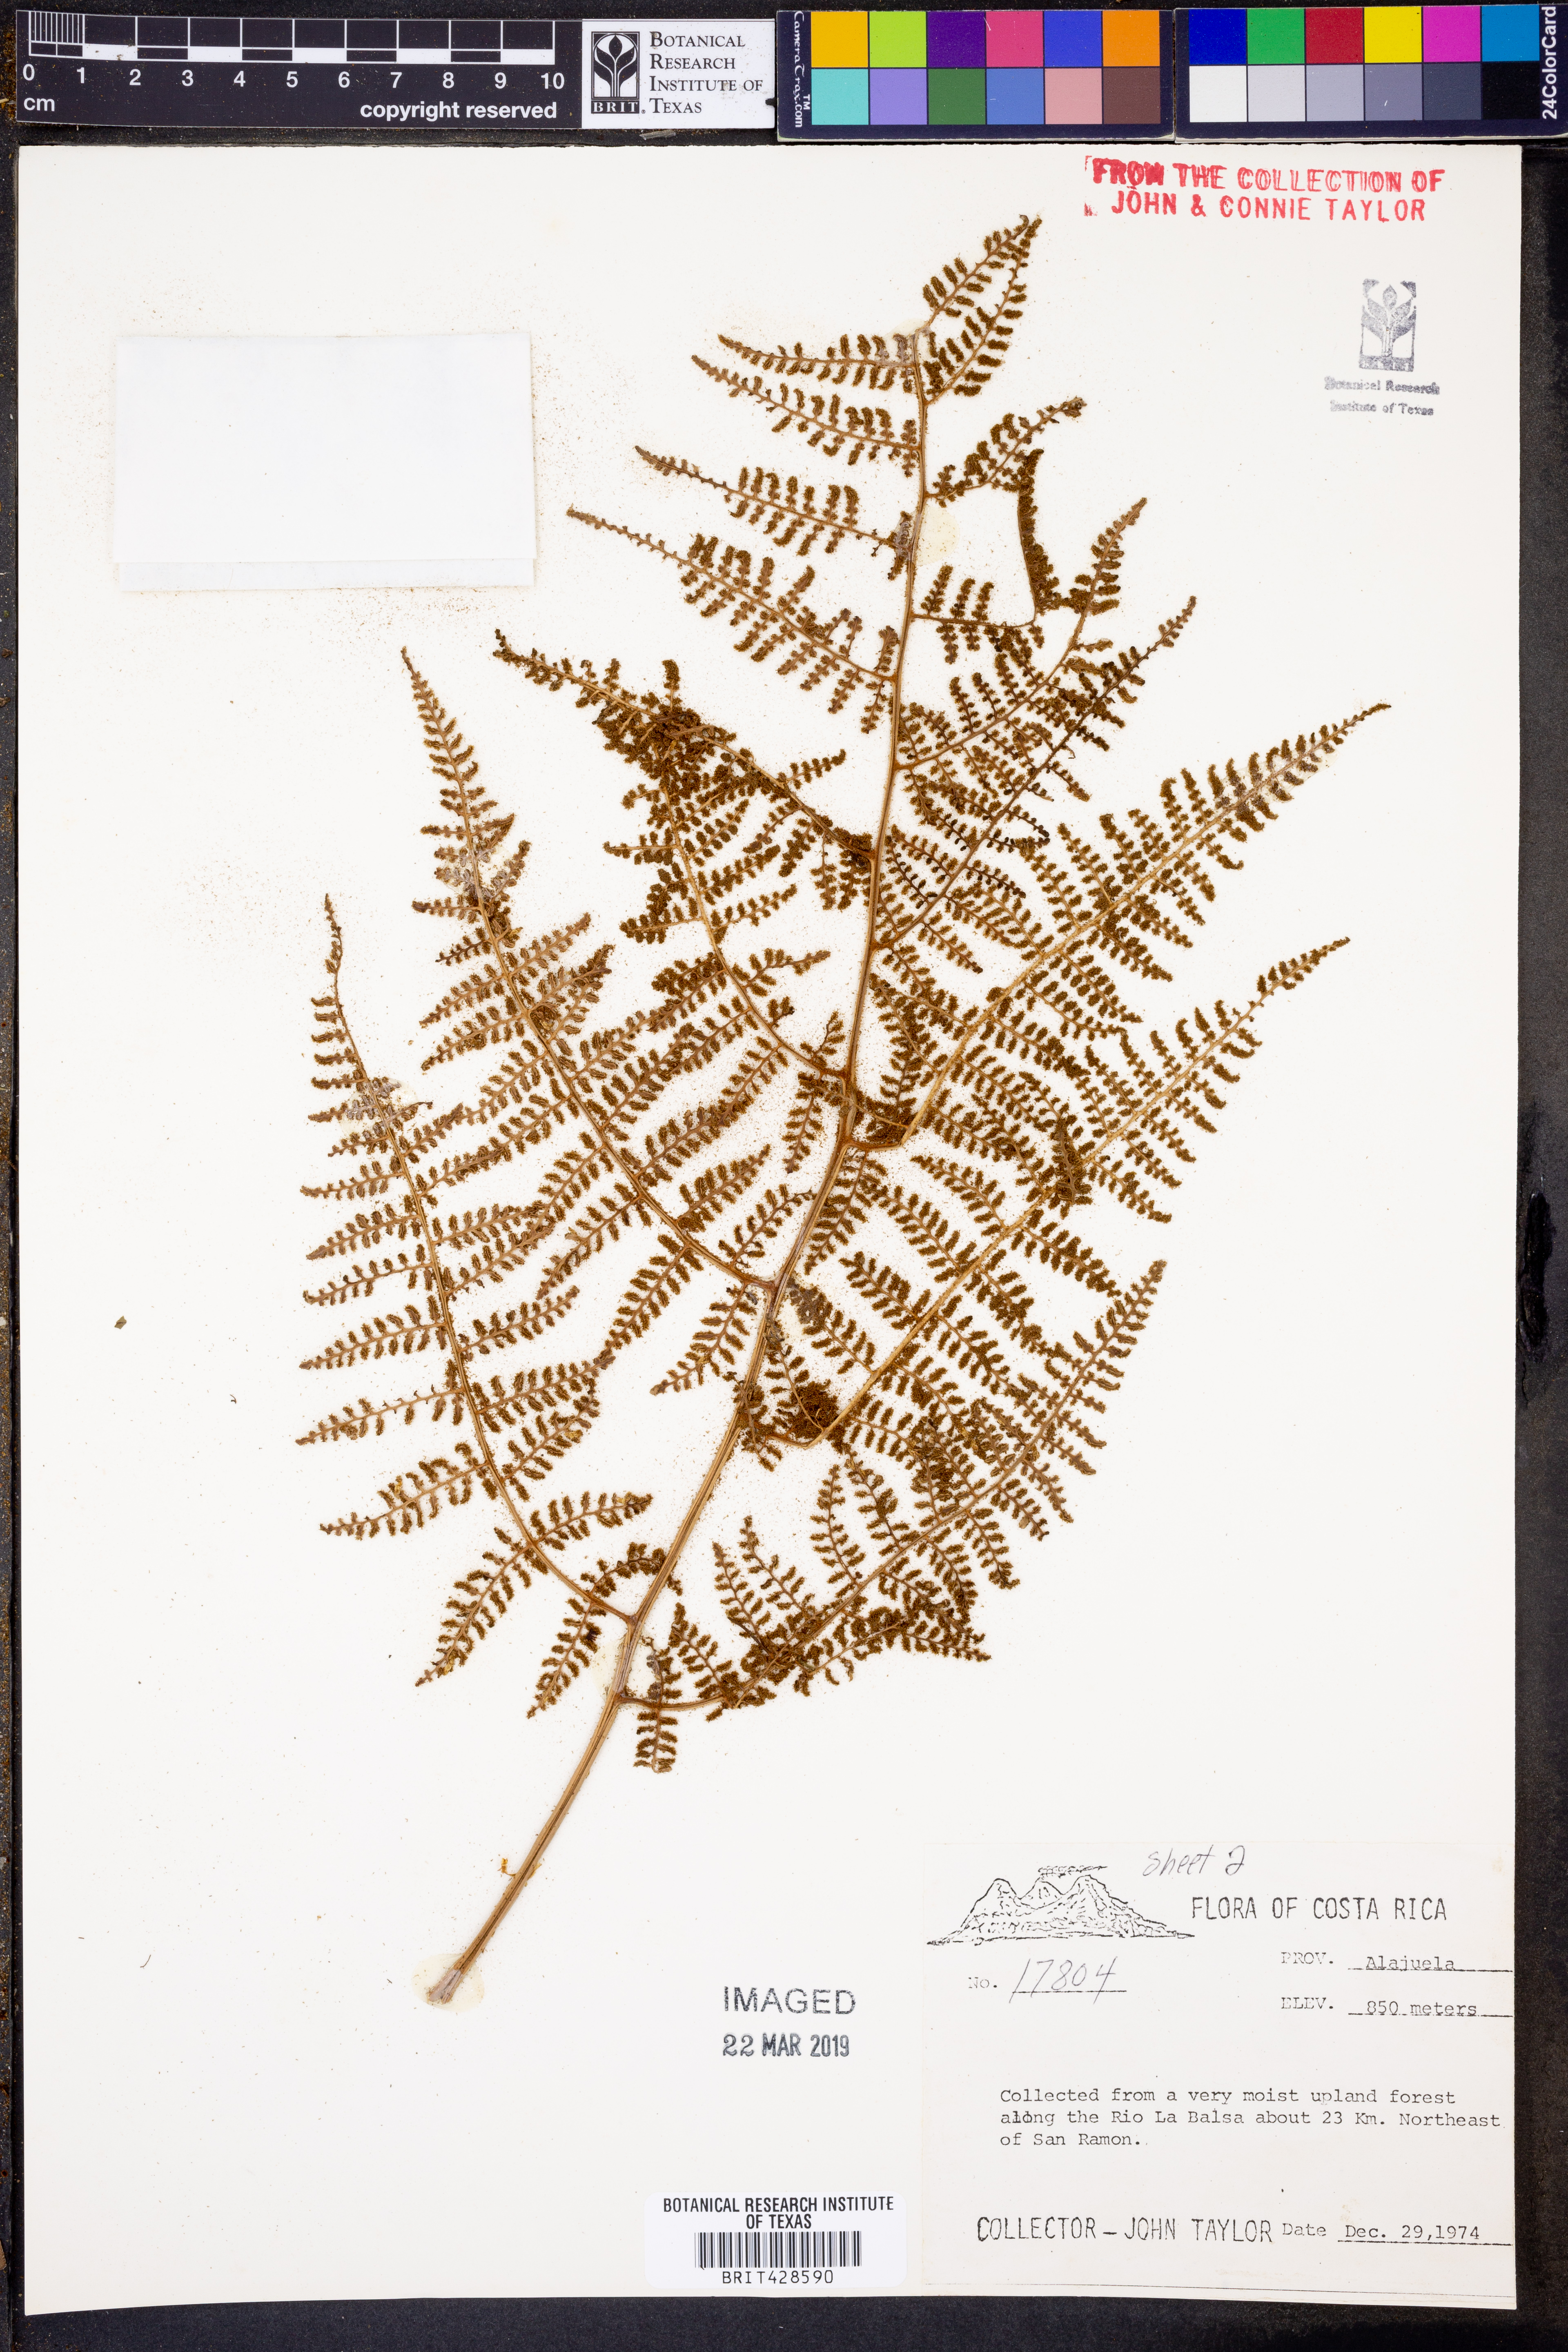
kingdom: Plantae
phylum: Tracheophyta
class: Polypodiopsida
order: Polypodiales
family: Tectariaceae
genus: Tectaria
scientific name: Tectaria
